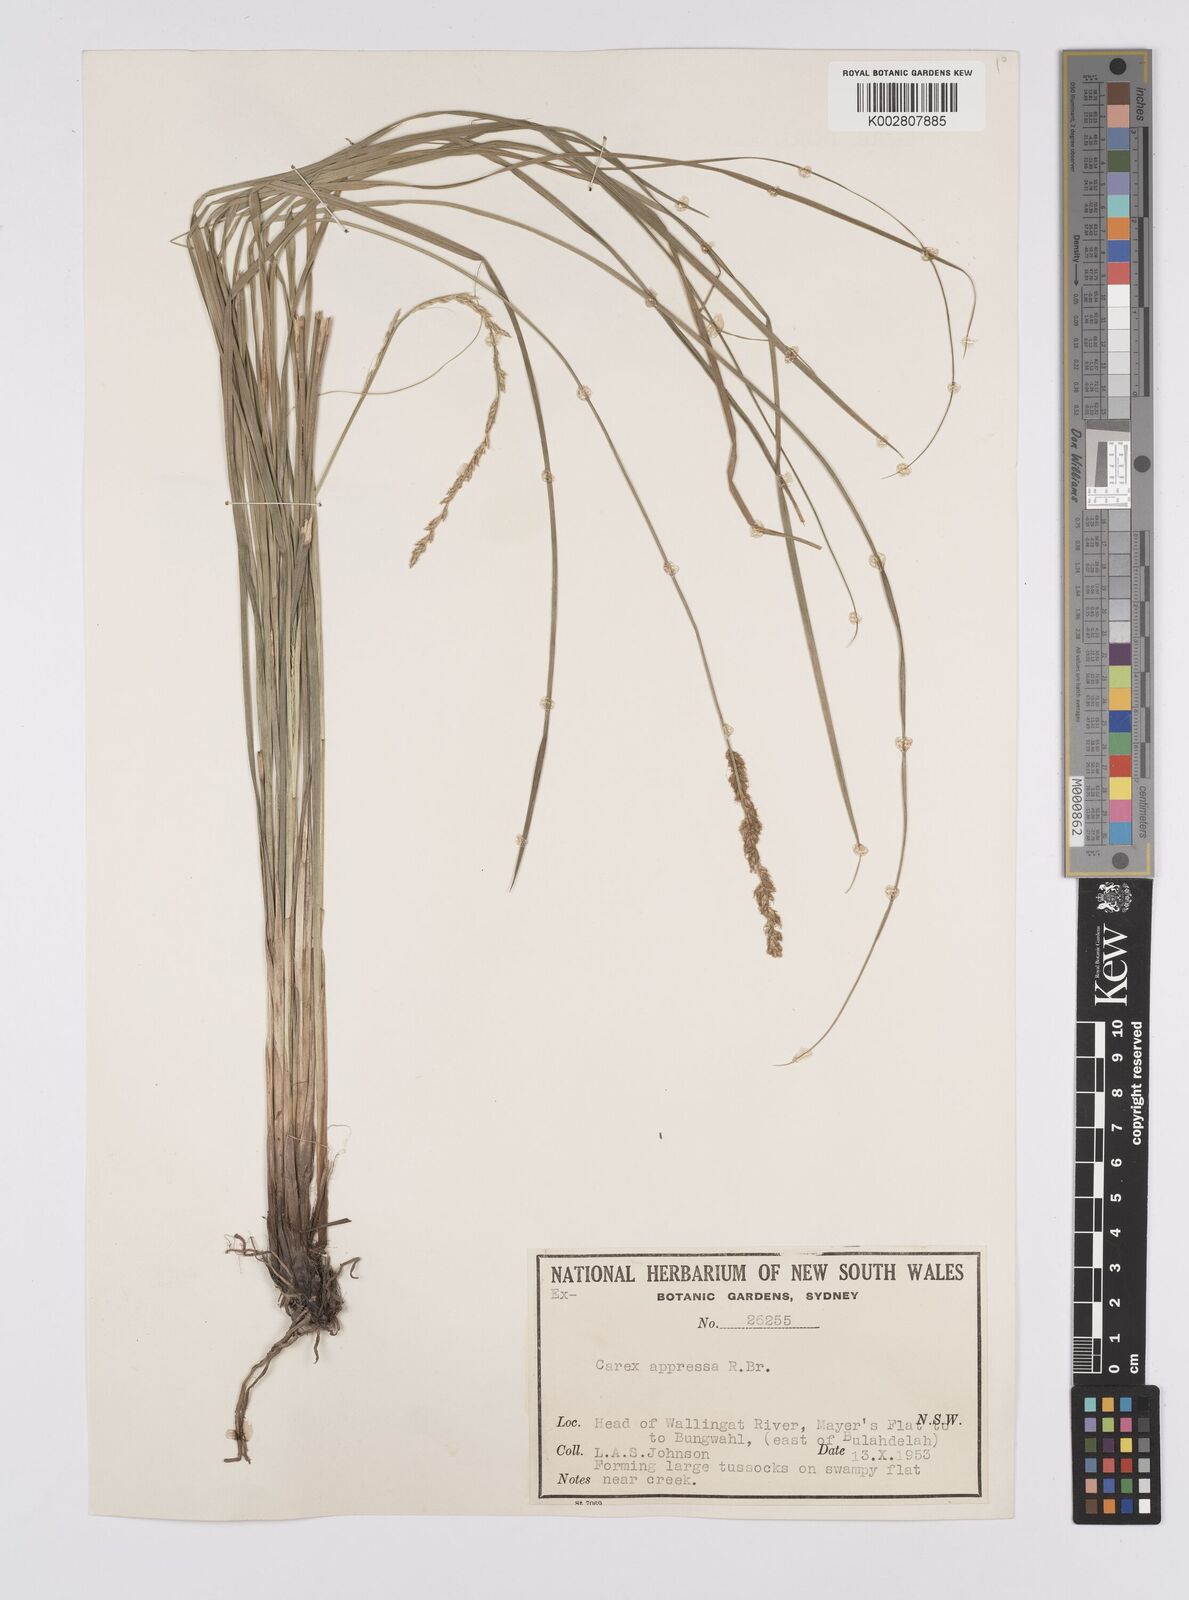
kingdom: Plantae
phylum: Tracheophyta
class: Liliopsida
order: Poales
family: Cyperaceae
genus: Carex
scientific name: Carex appressa
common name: Tussock sedge
